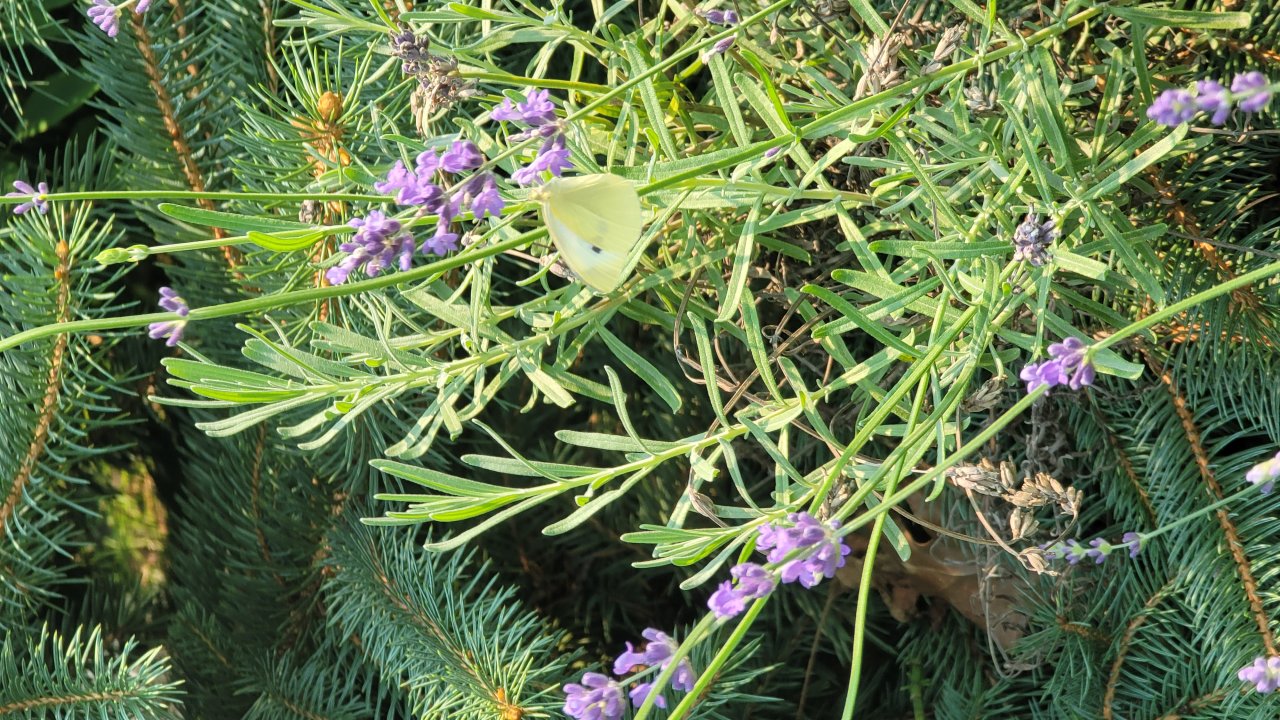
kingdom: Animalia
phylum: Arthropoda
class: Insecta
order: Lepidoptera
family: Pieridae
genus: Pieris
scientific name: Pieris rapae
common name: Cabbage White
